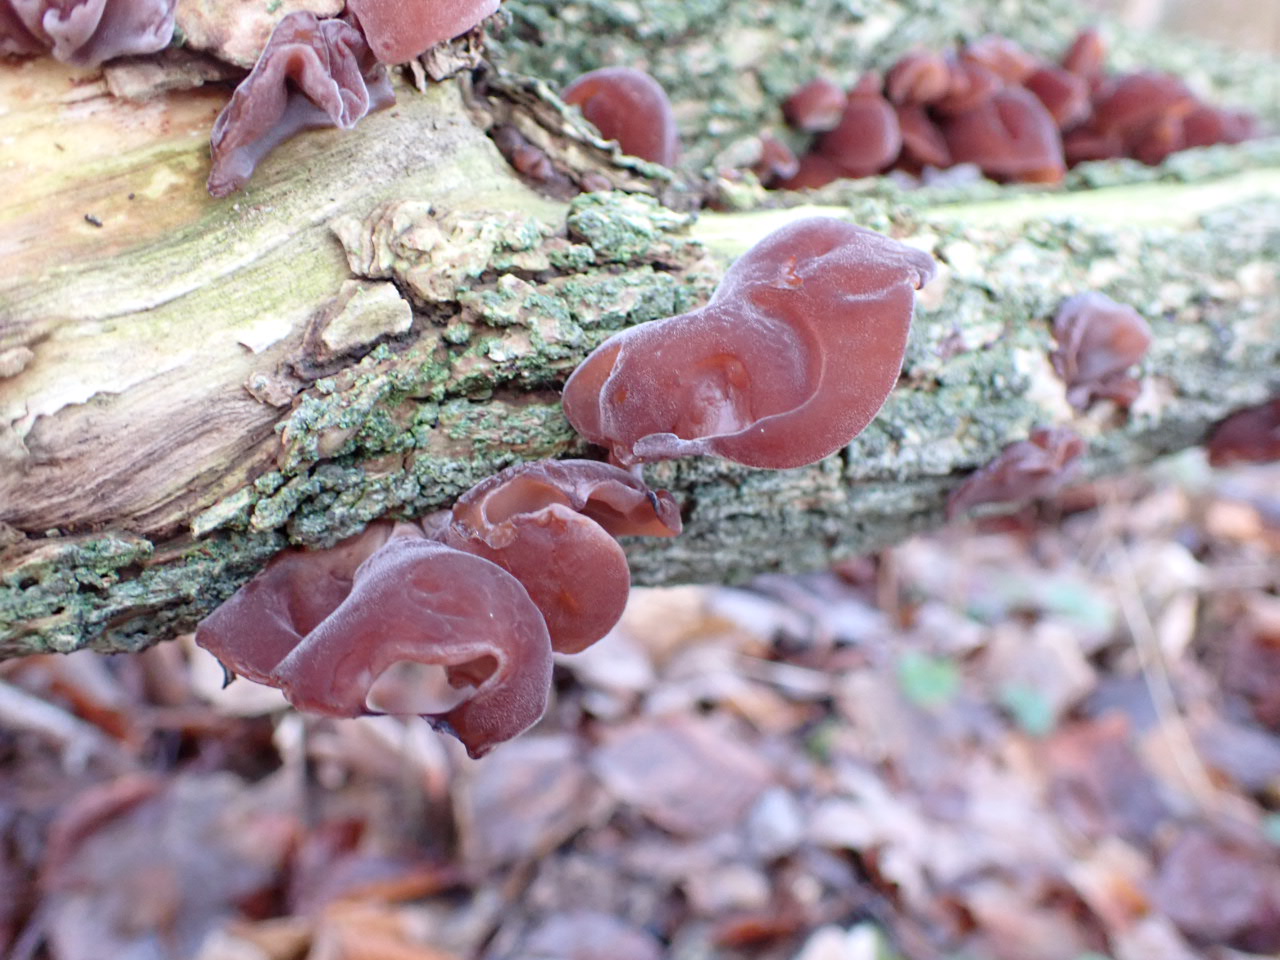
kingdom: Fungi
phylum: Basidiomycota
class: Agaricomycetes
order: Auriculariales
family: Auriculariaceae
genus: Auricularia
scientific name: Auricularia auricula-judae
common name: almindelig judasøre
